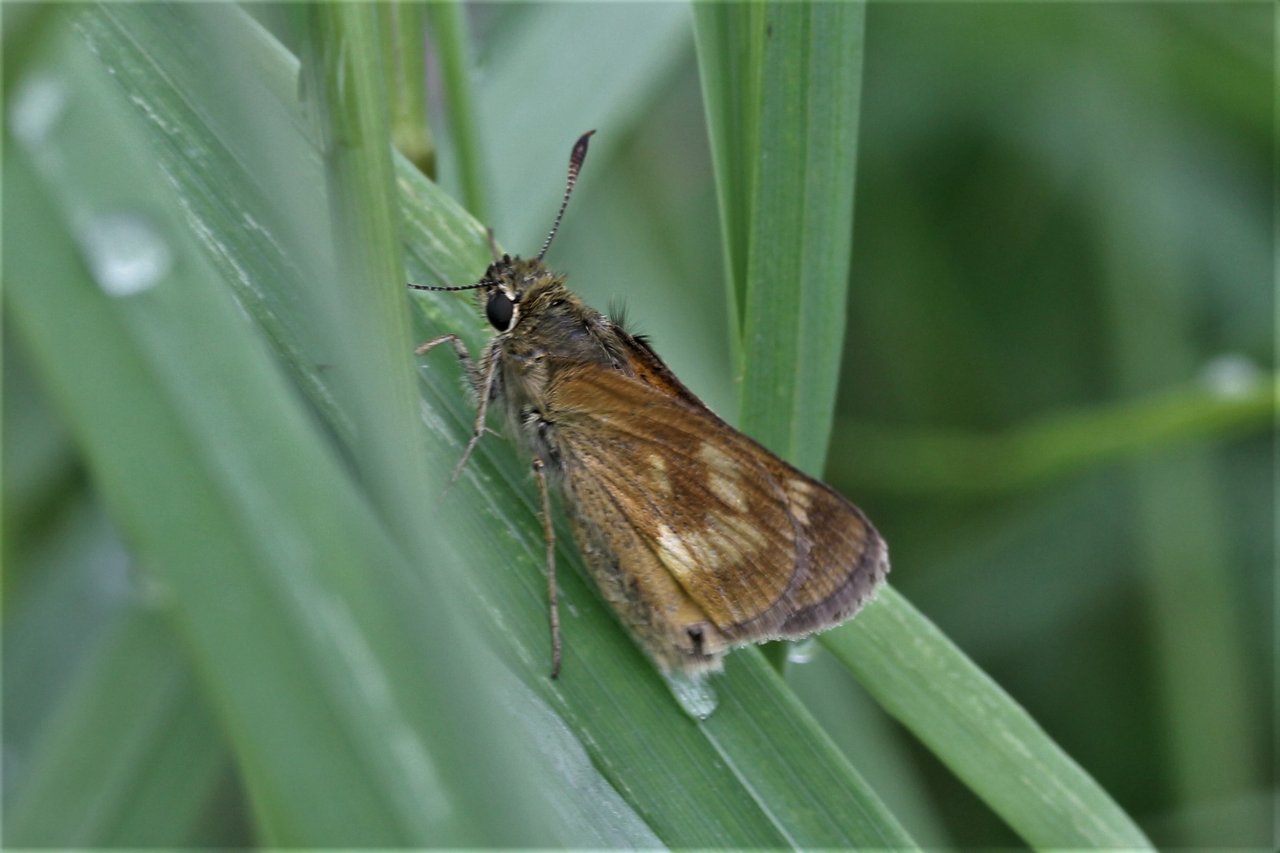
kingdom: Animalia
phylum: Arthropoda
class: Insecta
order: Lepidoptera
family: Hesperiidae
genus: Polites
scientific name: Polites
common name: Long Dash Skipper
